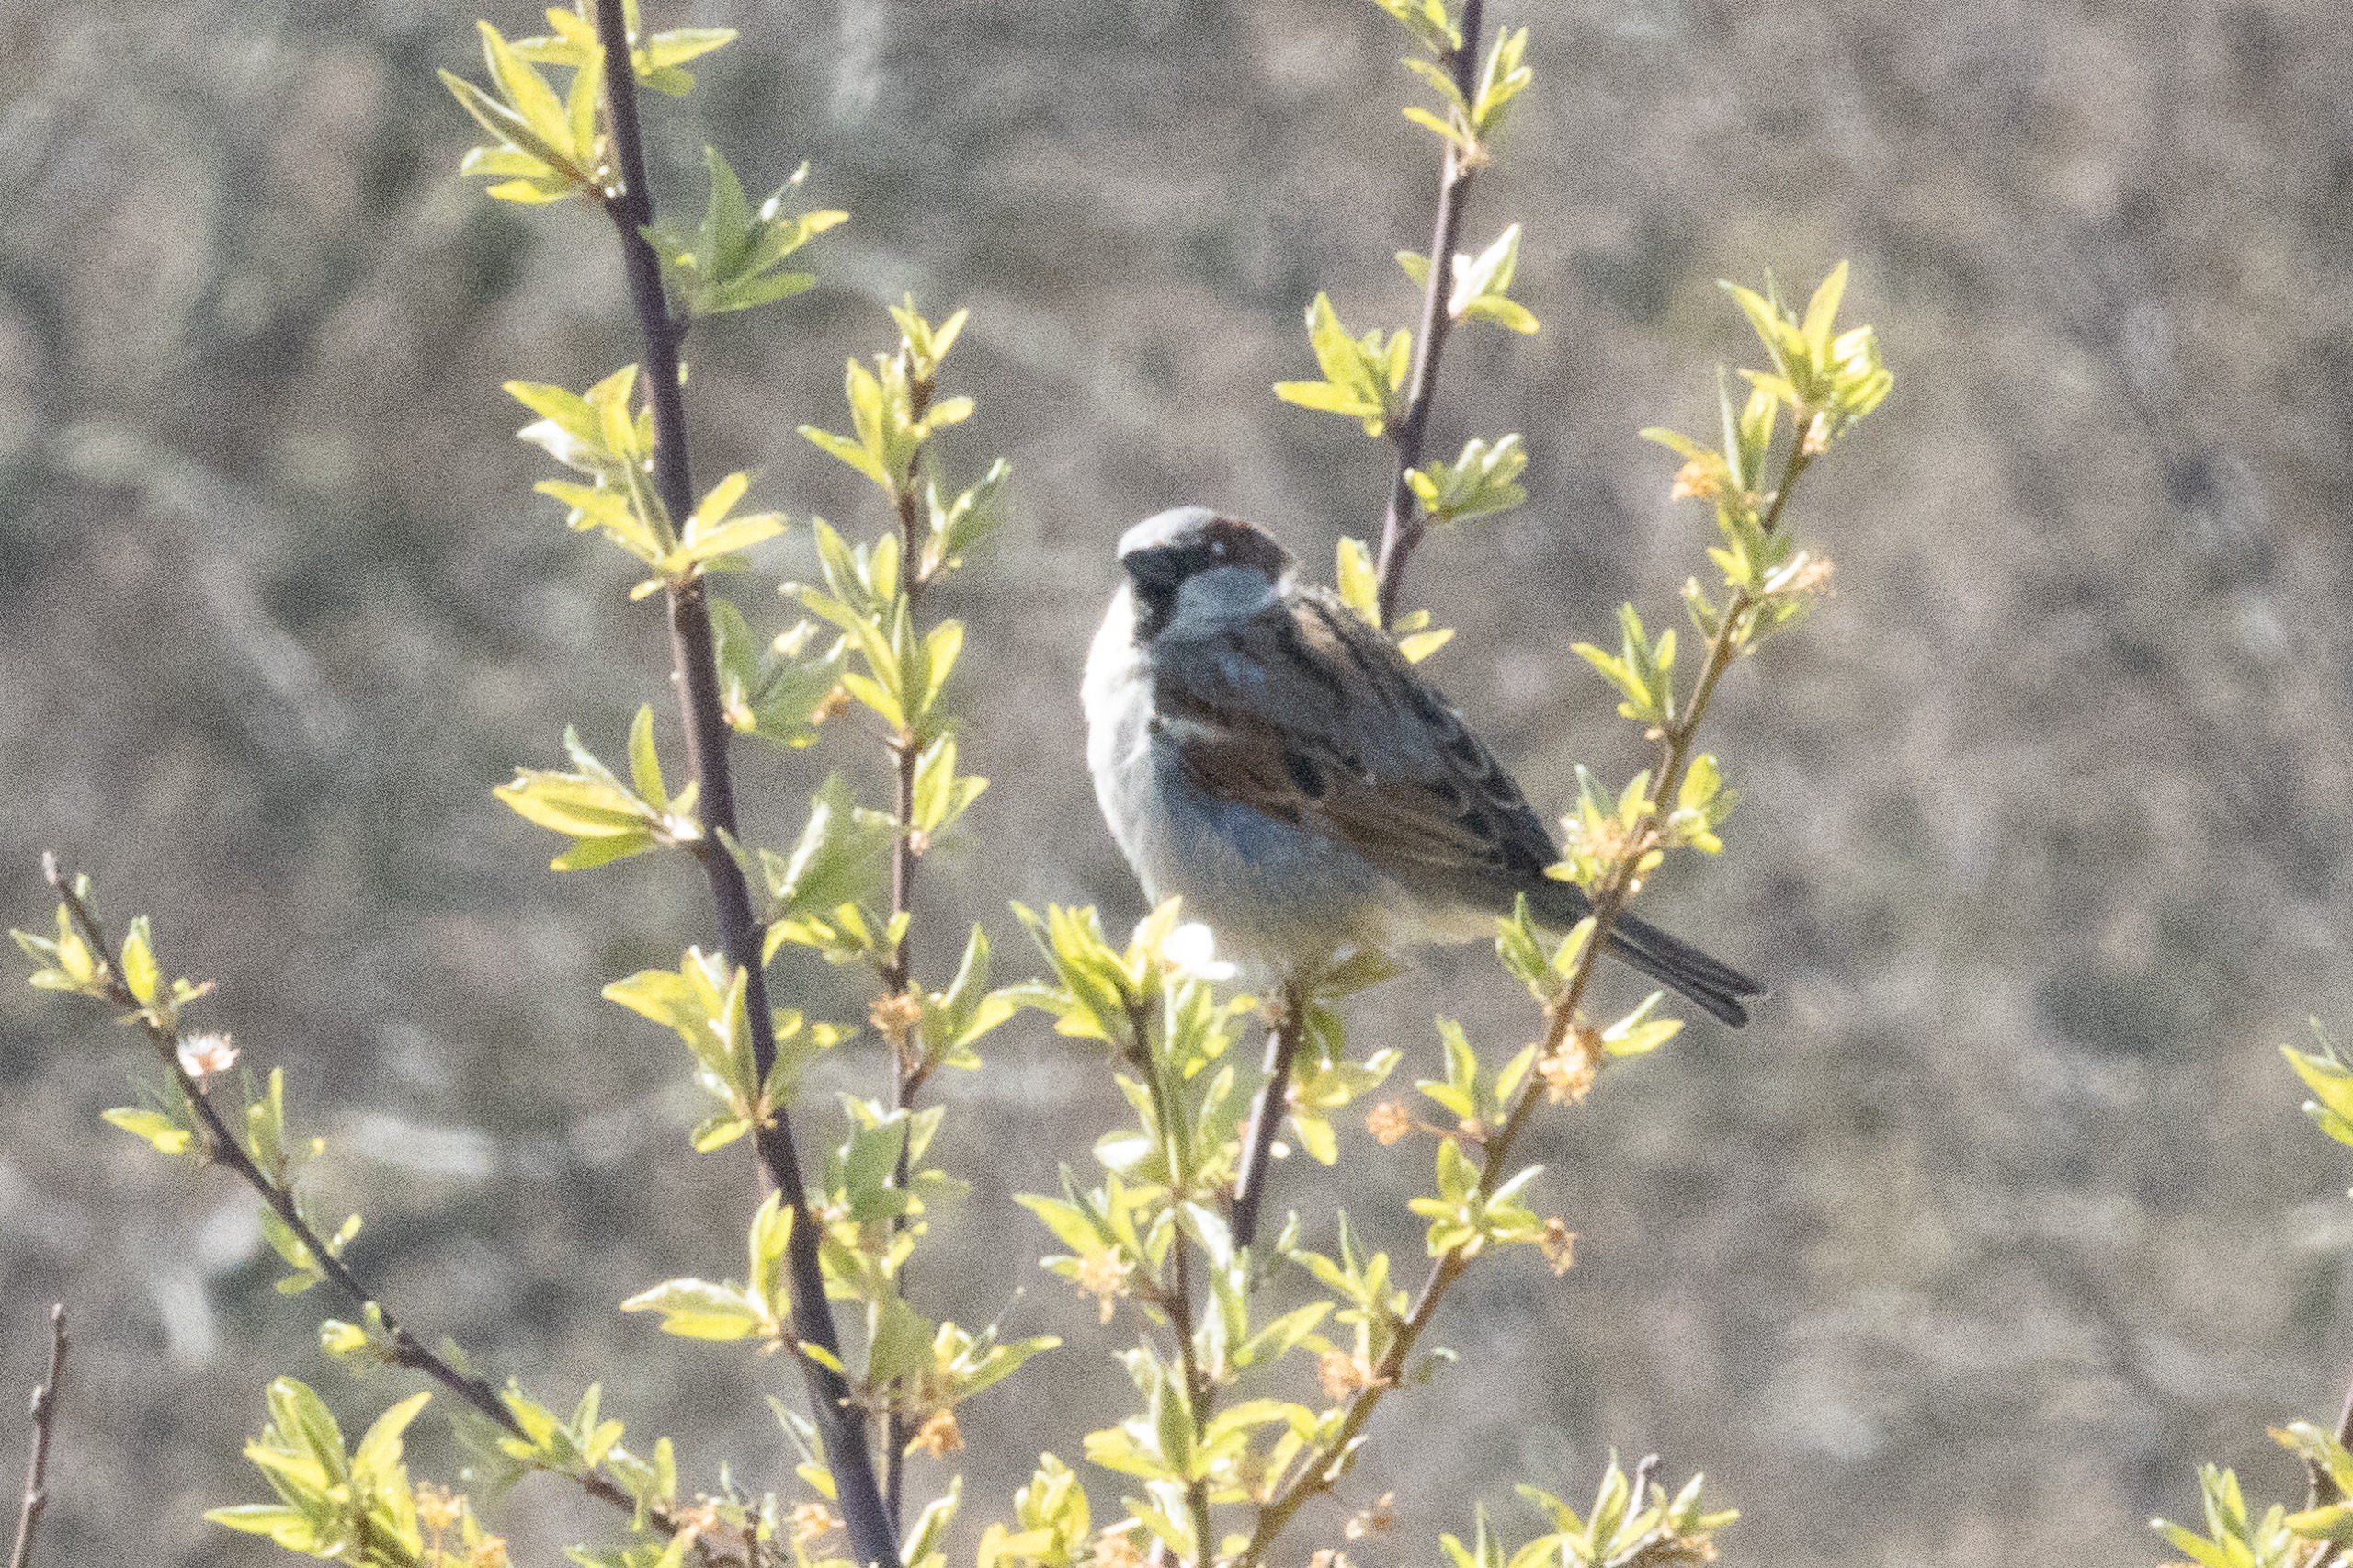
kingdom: Animalia
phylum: Chordata
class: Aves
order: Passeriformes
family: Passeridae
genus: Passer
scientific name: Passer domesticus
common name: Gråspurv
